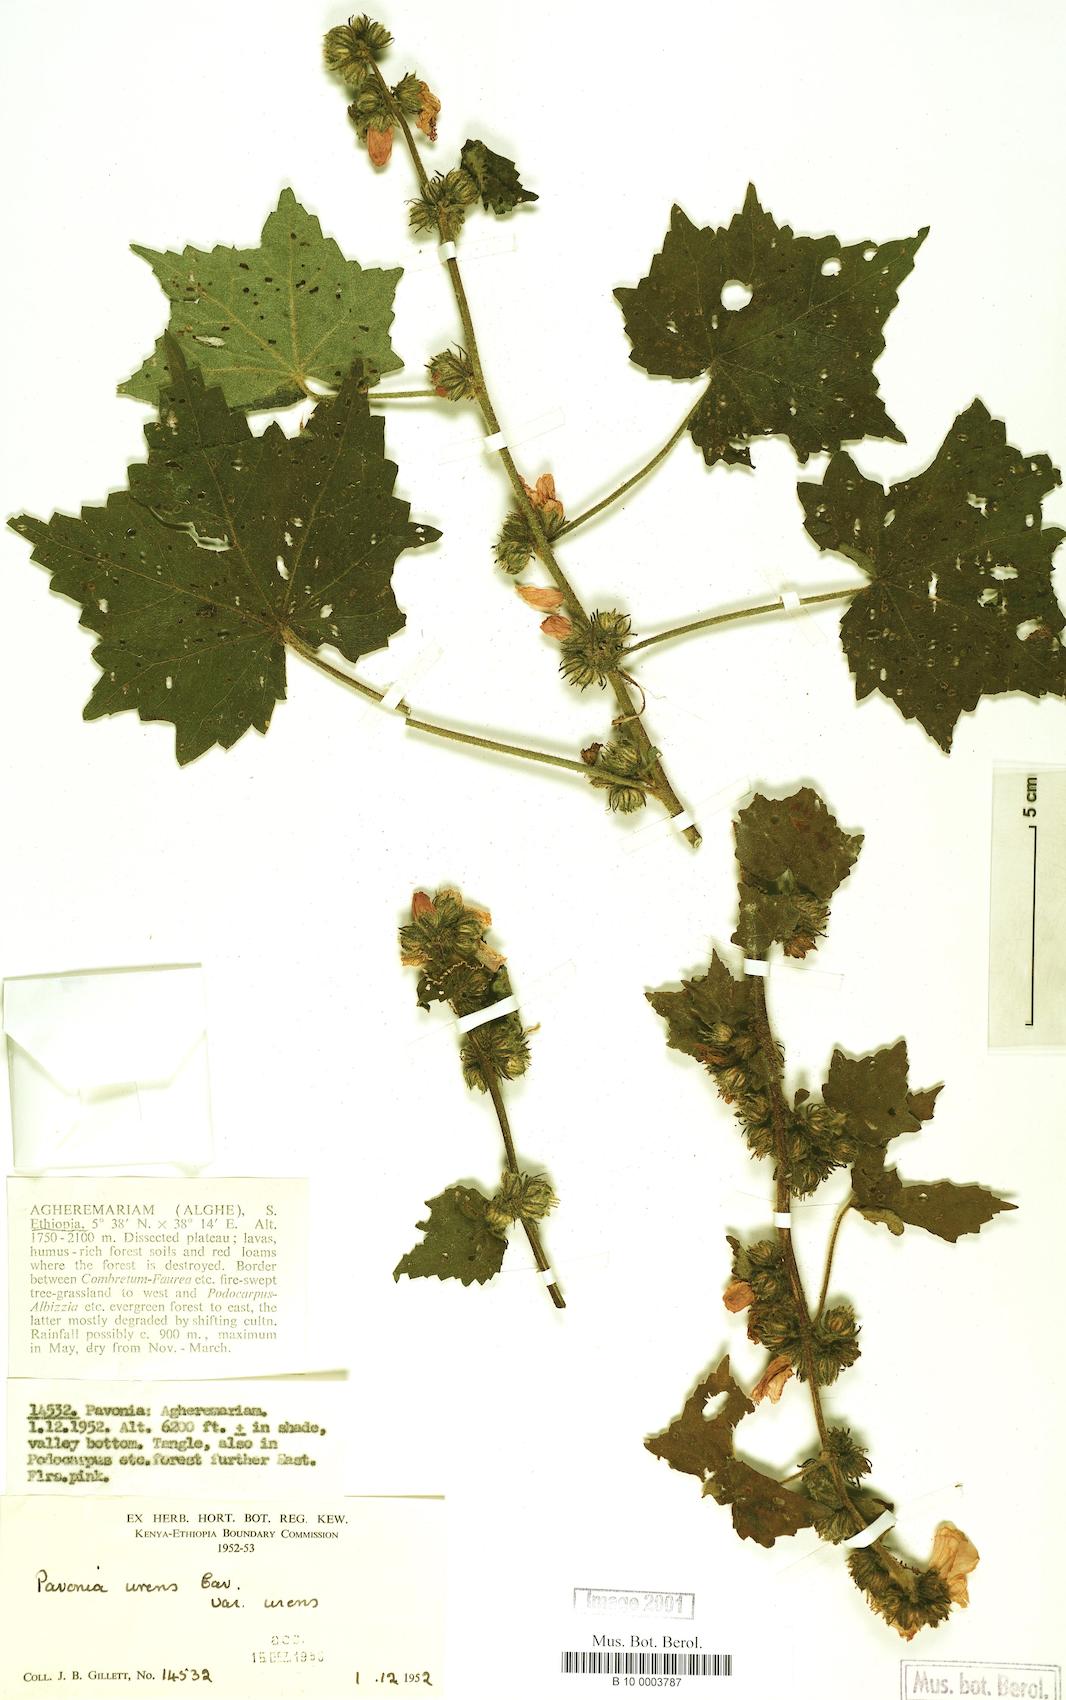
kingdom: Plantae
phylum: Tracheophyta
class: Magnoliopsida
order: Malvales
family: Malvaceae
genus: Pavonia
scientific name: Pavonia urens
